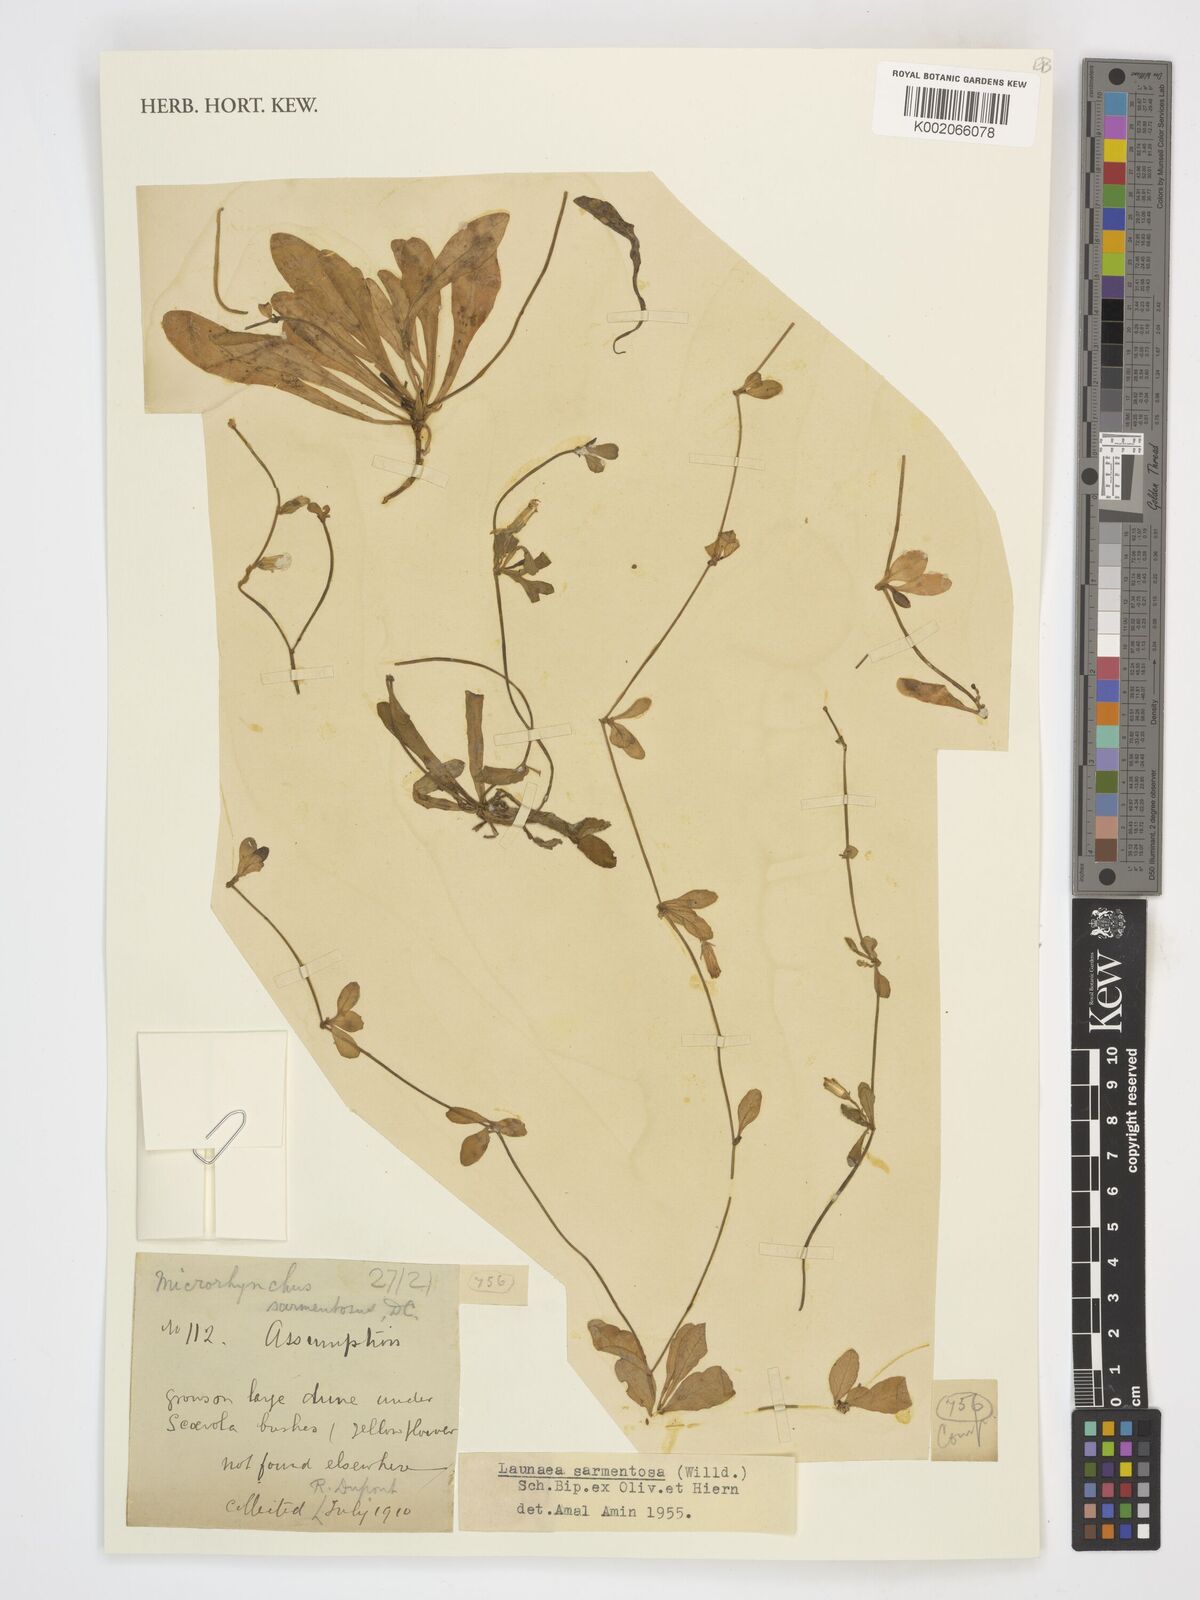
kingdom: Plantae
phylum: Tracheophyta
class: Magnoliopsida
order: Asterales
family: Asteraceae
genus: Launaea
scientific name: Launaea sarmentosa
